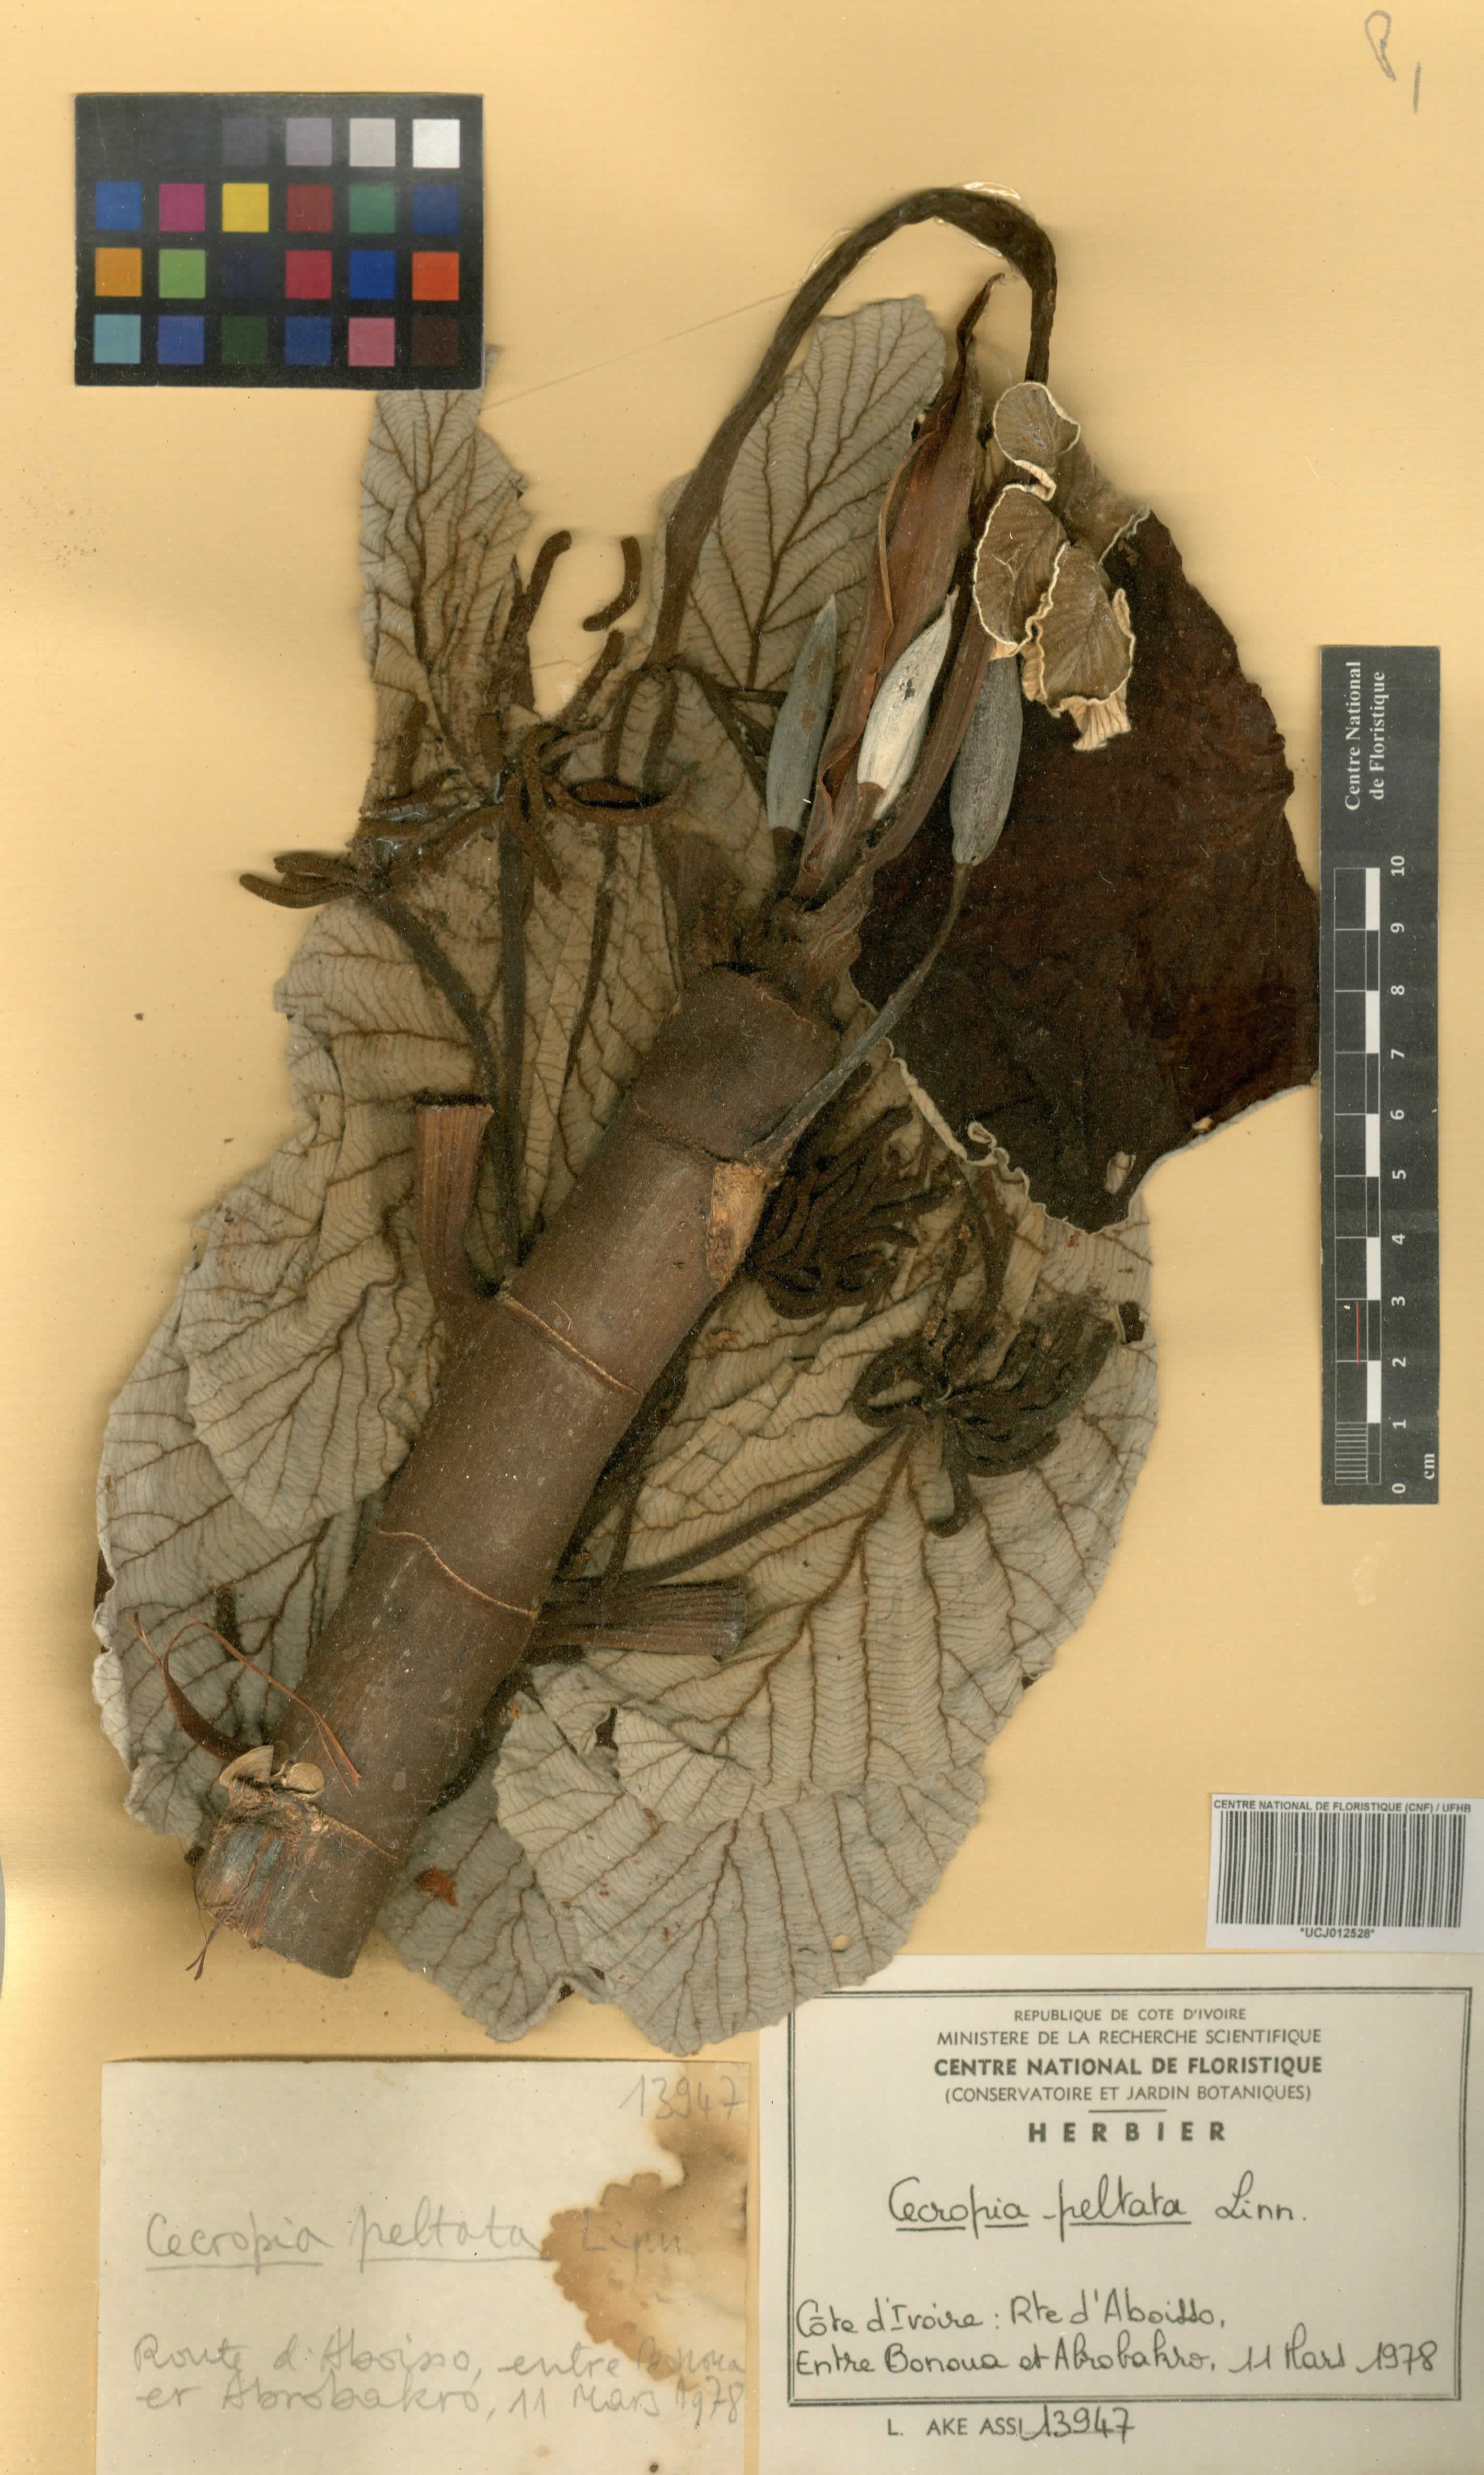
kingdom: Plantae
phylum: Tracheophyta
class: Magnoliopsida
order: Rosales
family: Urticaceae
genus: Cecropia
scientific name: Cecropia peltata
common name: Trumpet-tree
